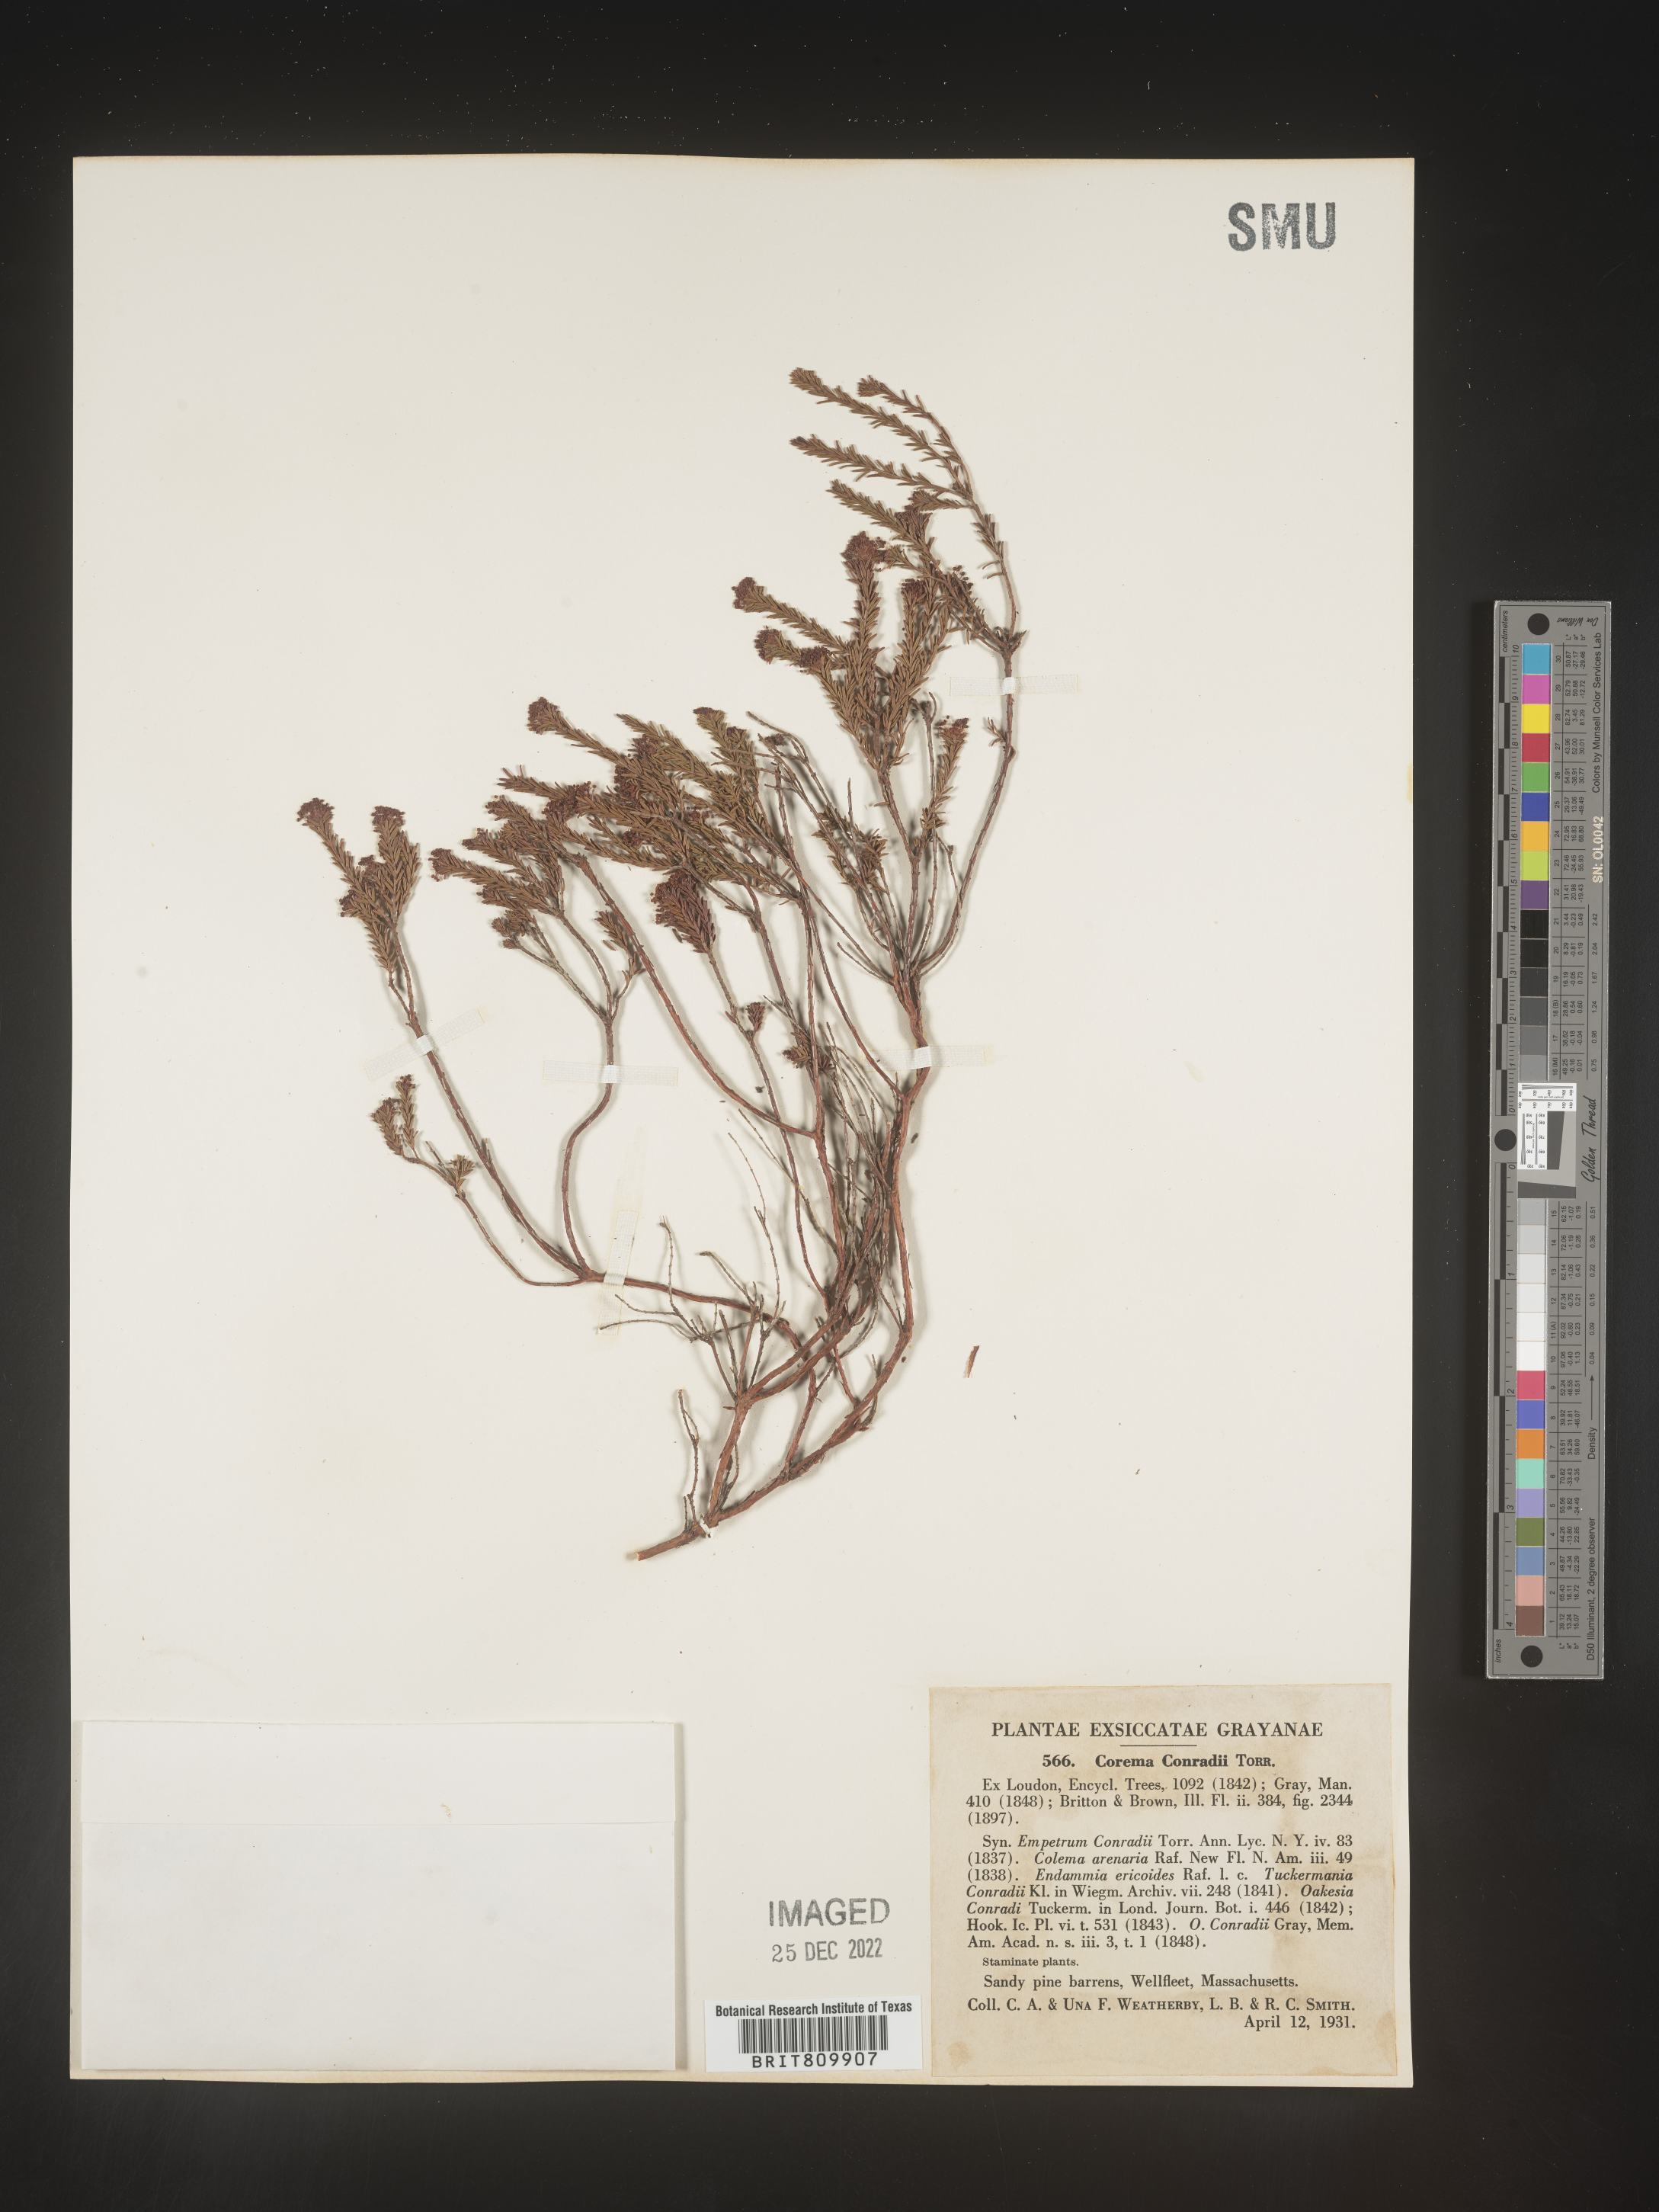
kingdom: Plantae
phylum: Tracheophyta
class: Magnoliopsida
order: Ericales
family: Ericaceae
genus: Corema
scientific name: Corema
